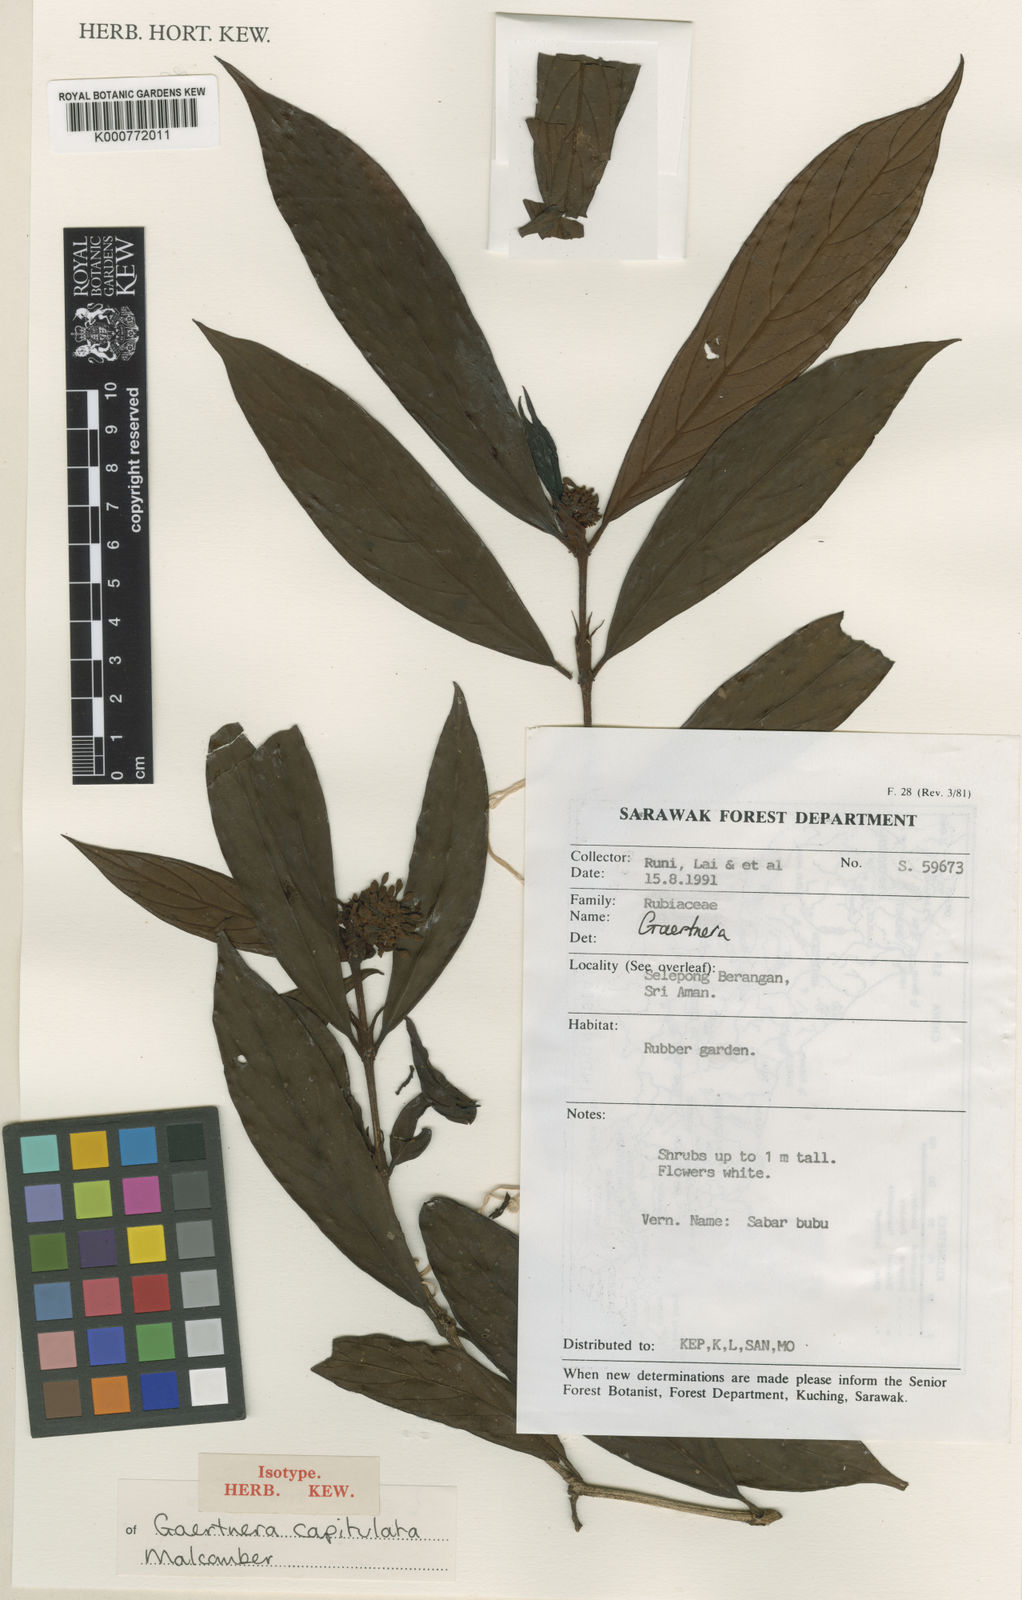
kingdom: Plantae
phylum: Tracheophyta
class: Magnoliopsida
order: Gentianales
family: Rubiaceae
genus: Gaertnera
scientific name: Gaertnera capitulata
